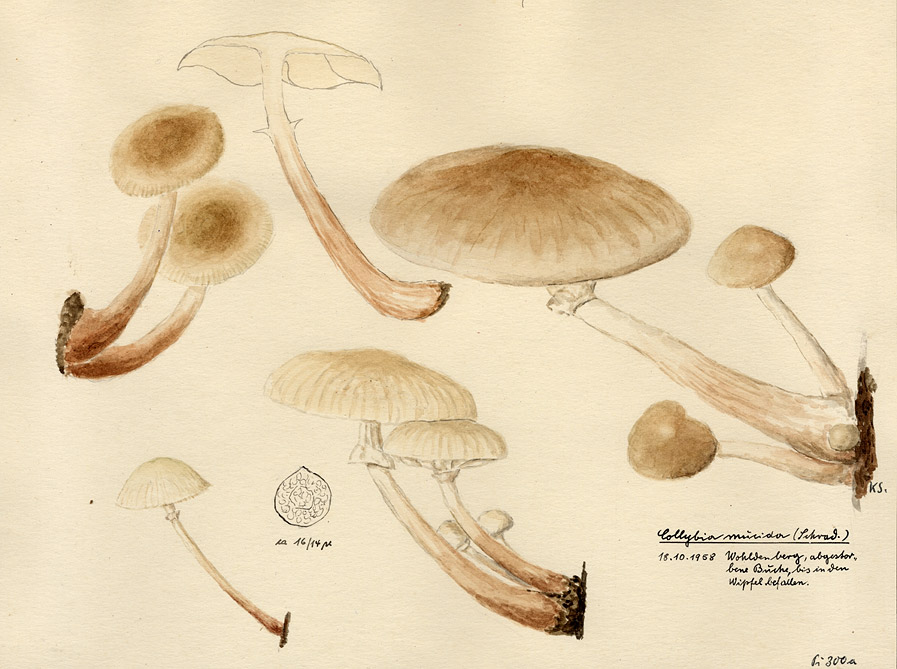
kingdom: Fungi
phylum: Basidiomycota
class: Agaricomycetes
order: Agaricales
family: Physalacriaceae
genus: Mucidula
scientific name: Mucidula mucida
